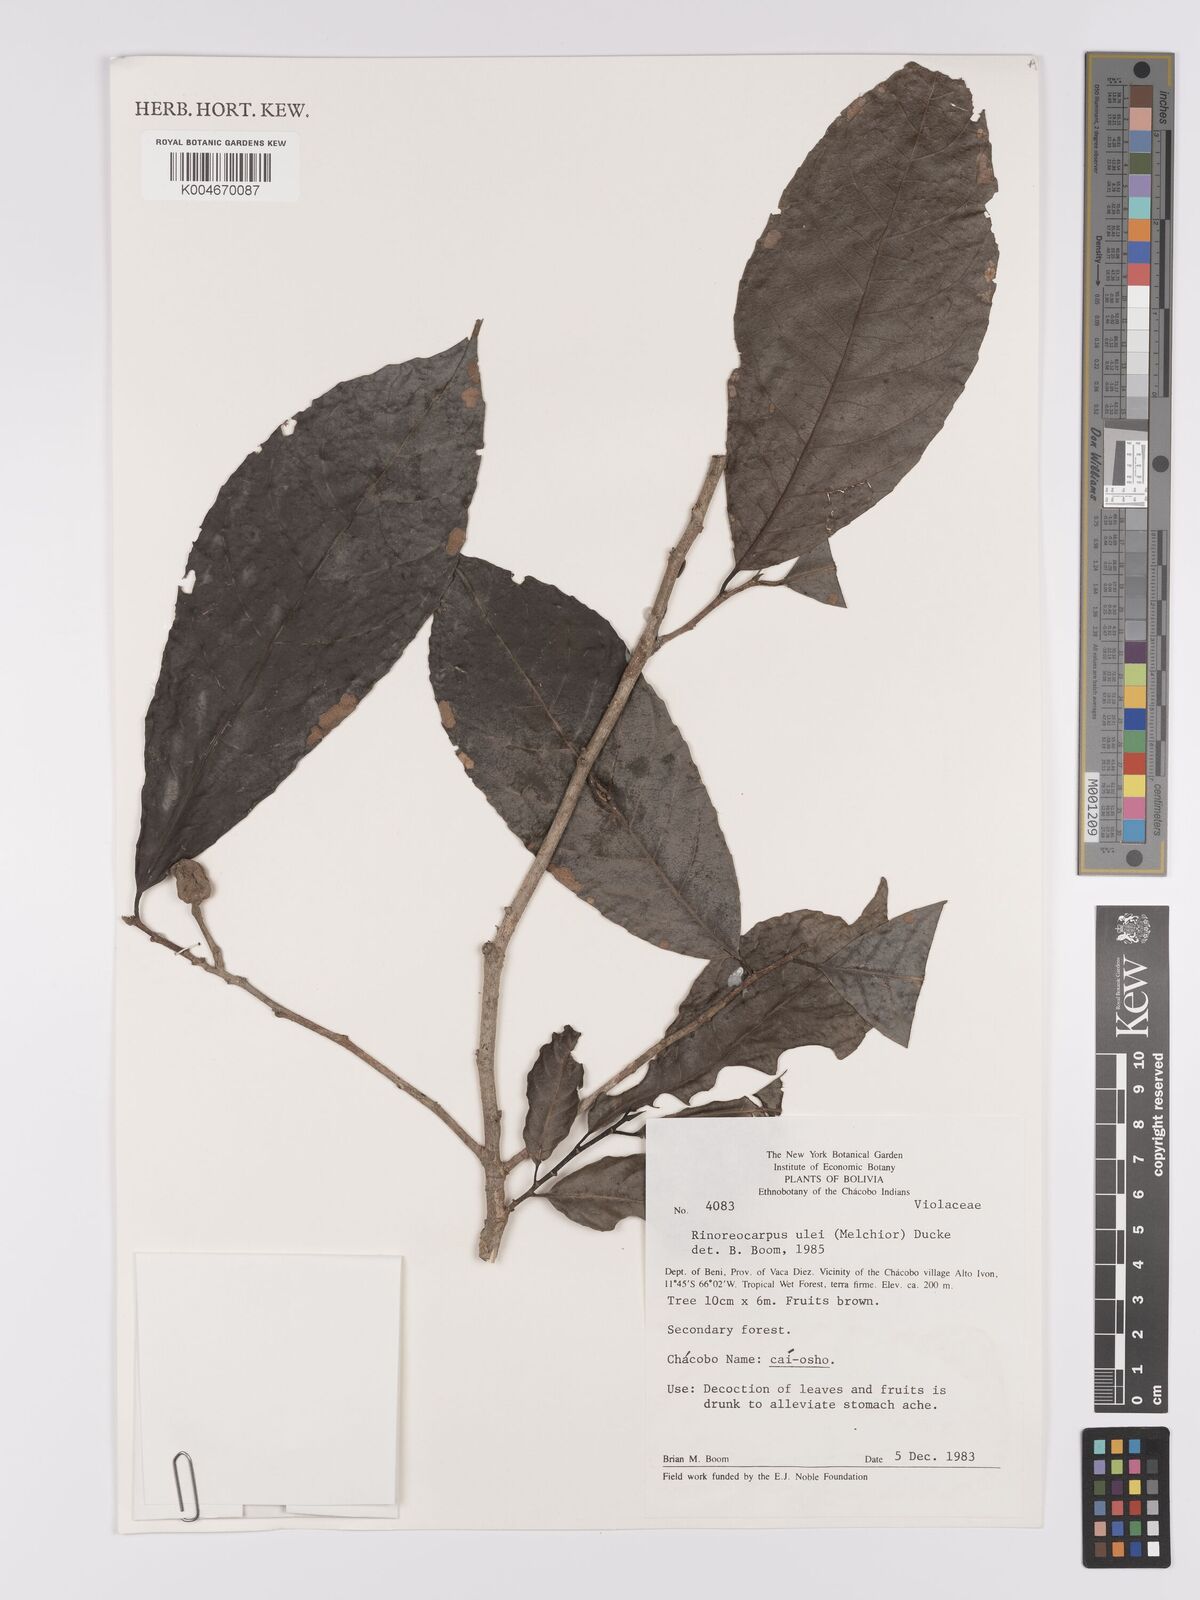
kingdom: Plantae
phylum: Tracheophyta
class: Magnoliopsida
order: Malpighiales
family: Violaceae
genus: Rinoreocarpus
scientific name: Rinoreocarpus ulei
